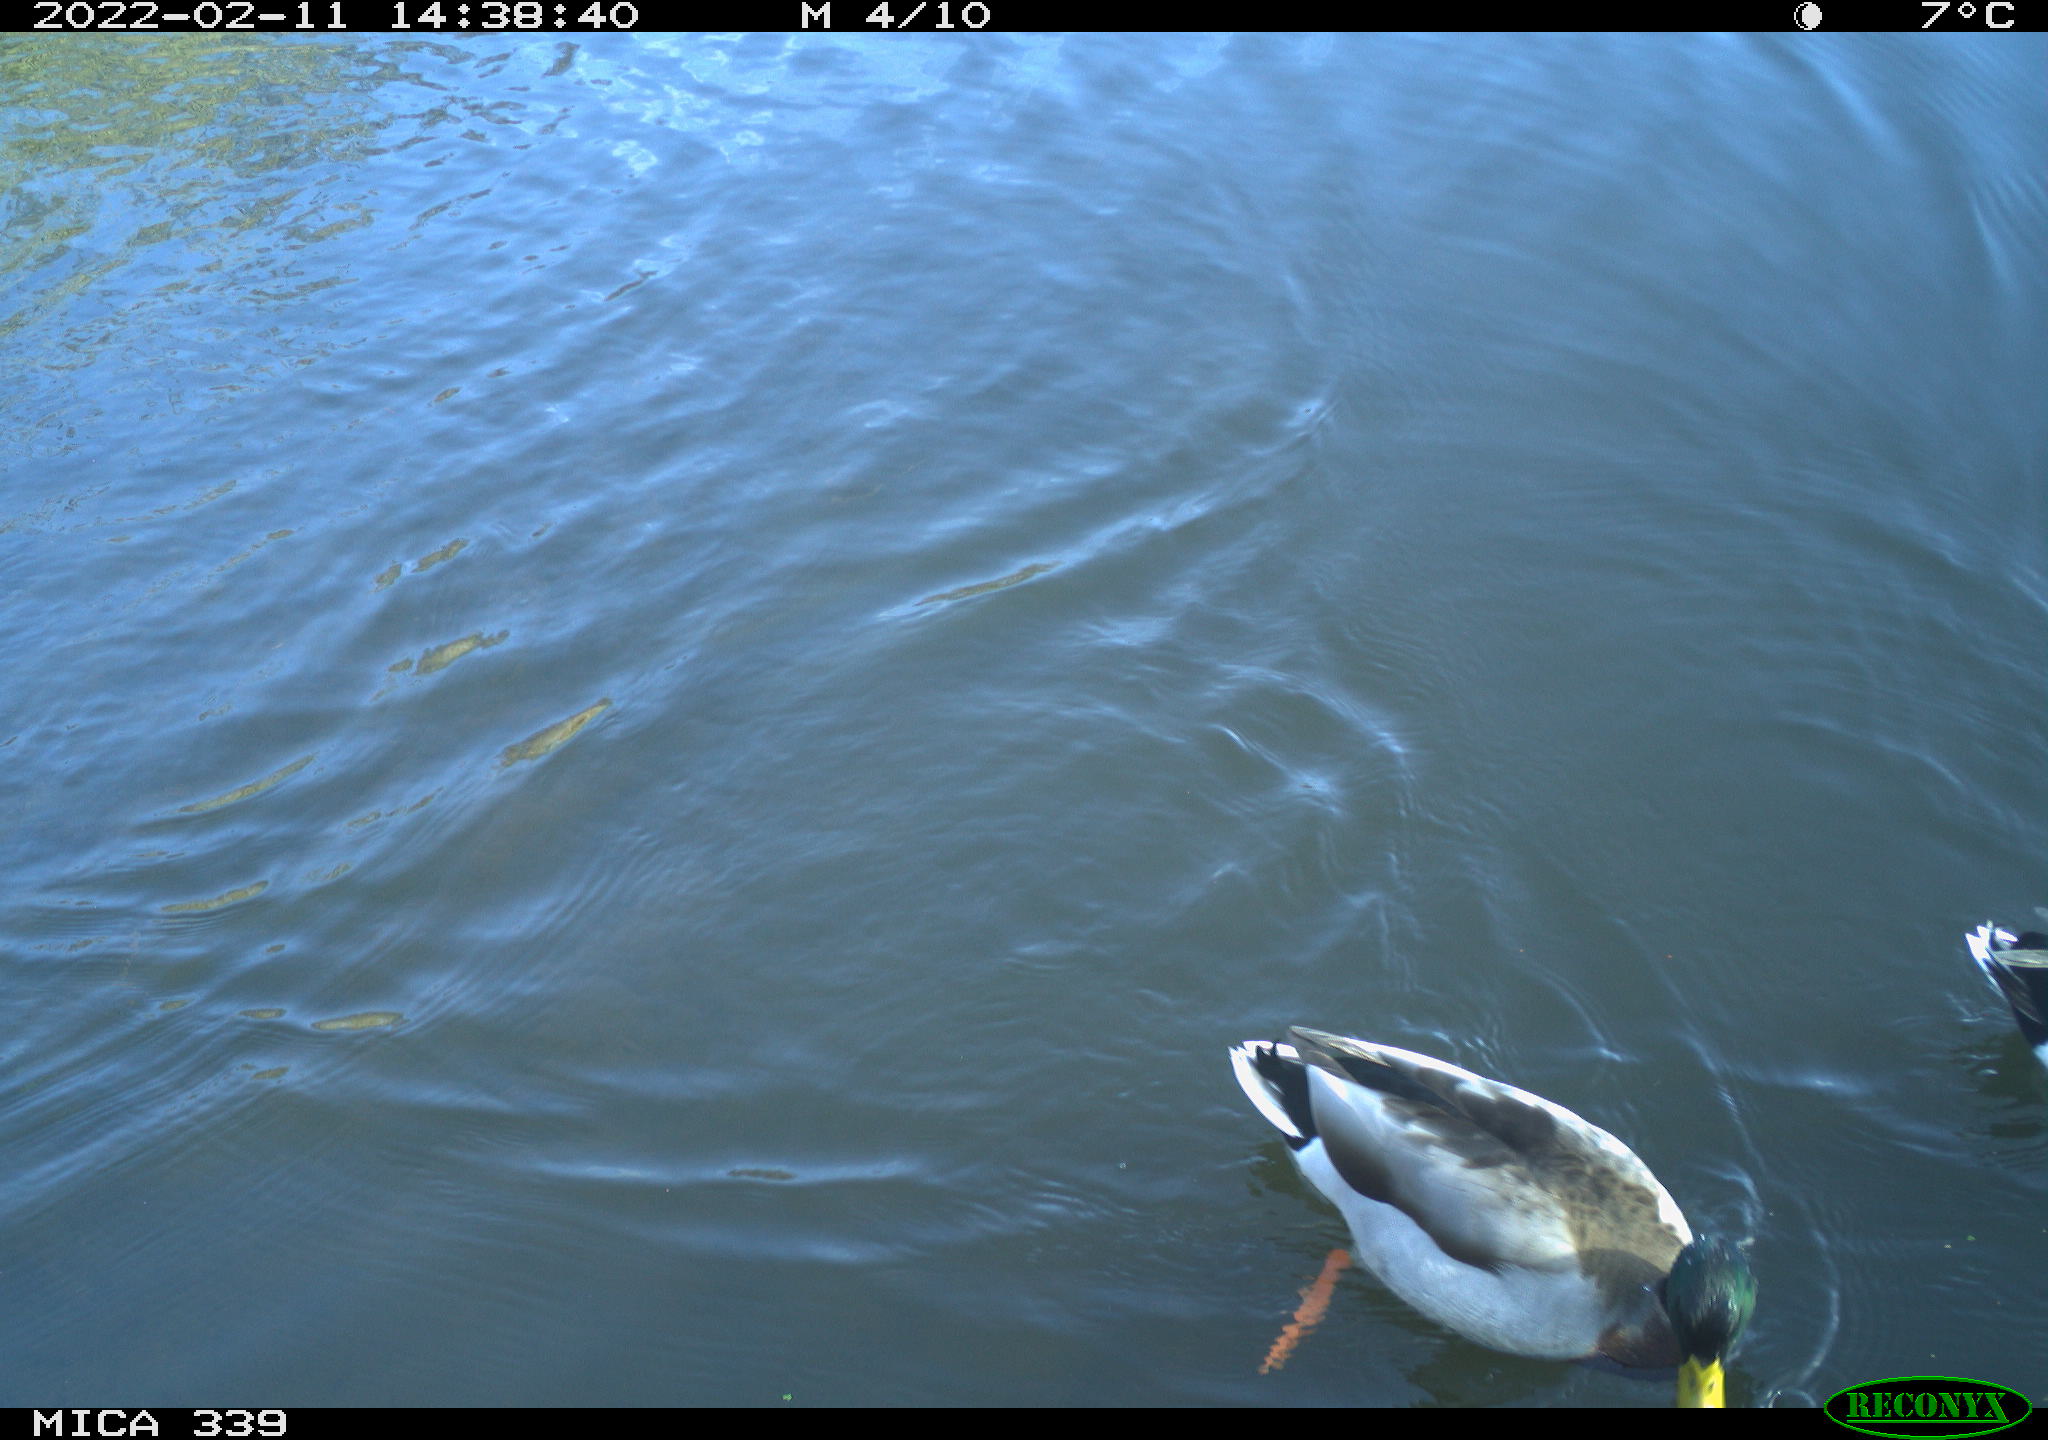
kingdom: Animalia
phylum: Chordata
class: Aves
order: Anseriformes
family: Anatidae
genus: Anas
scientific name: Anas platyrhynchos
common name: Mallard
